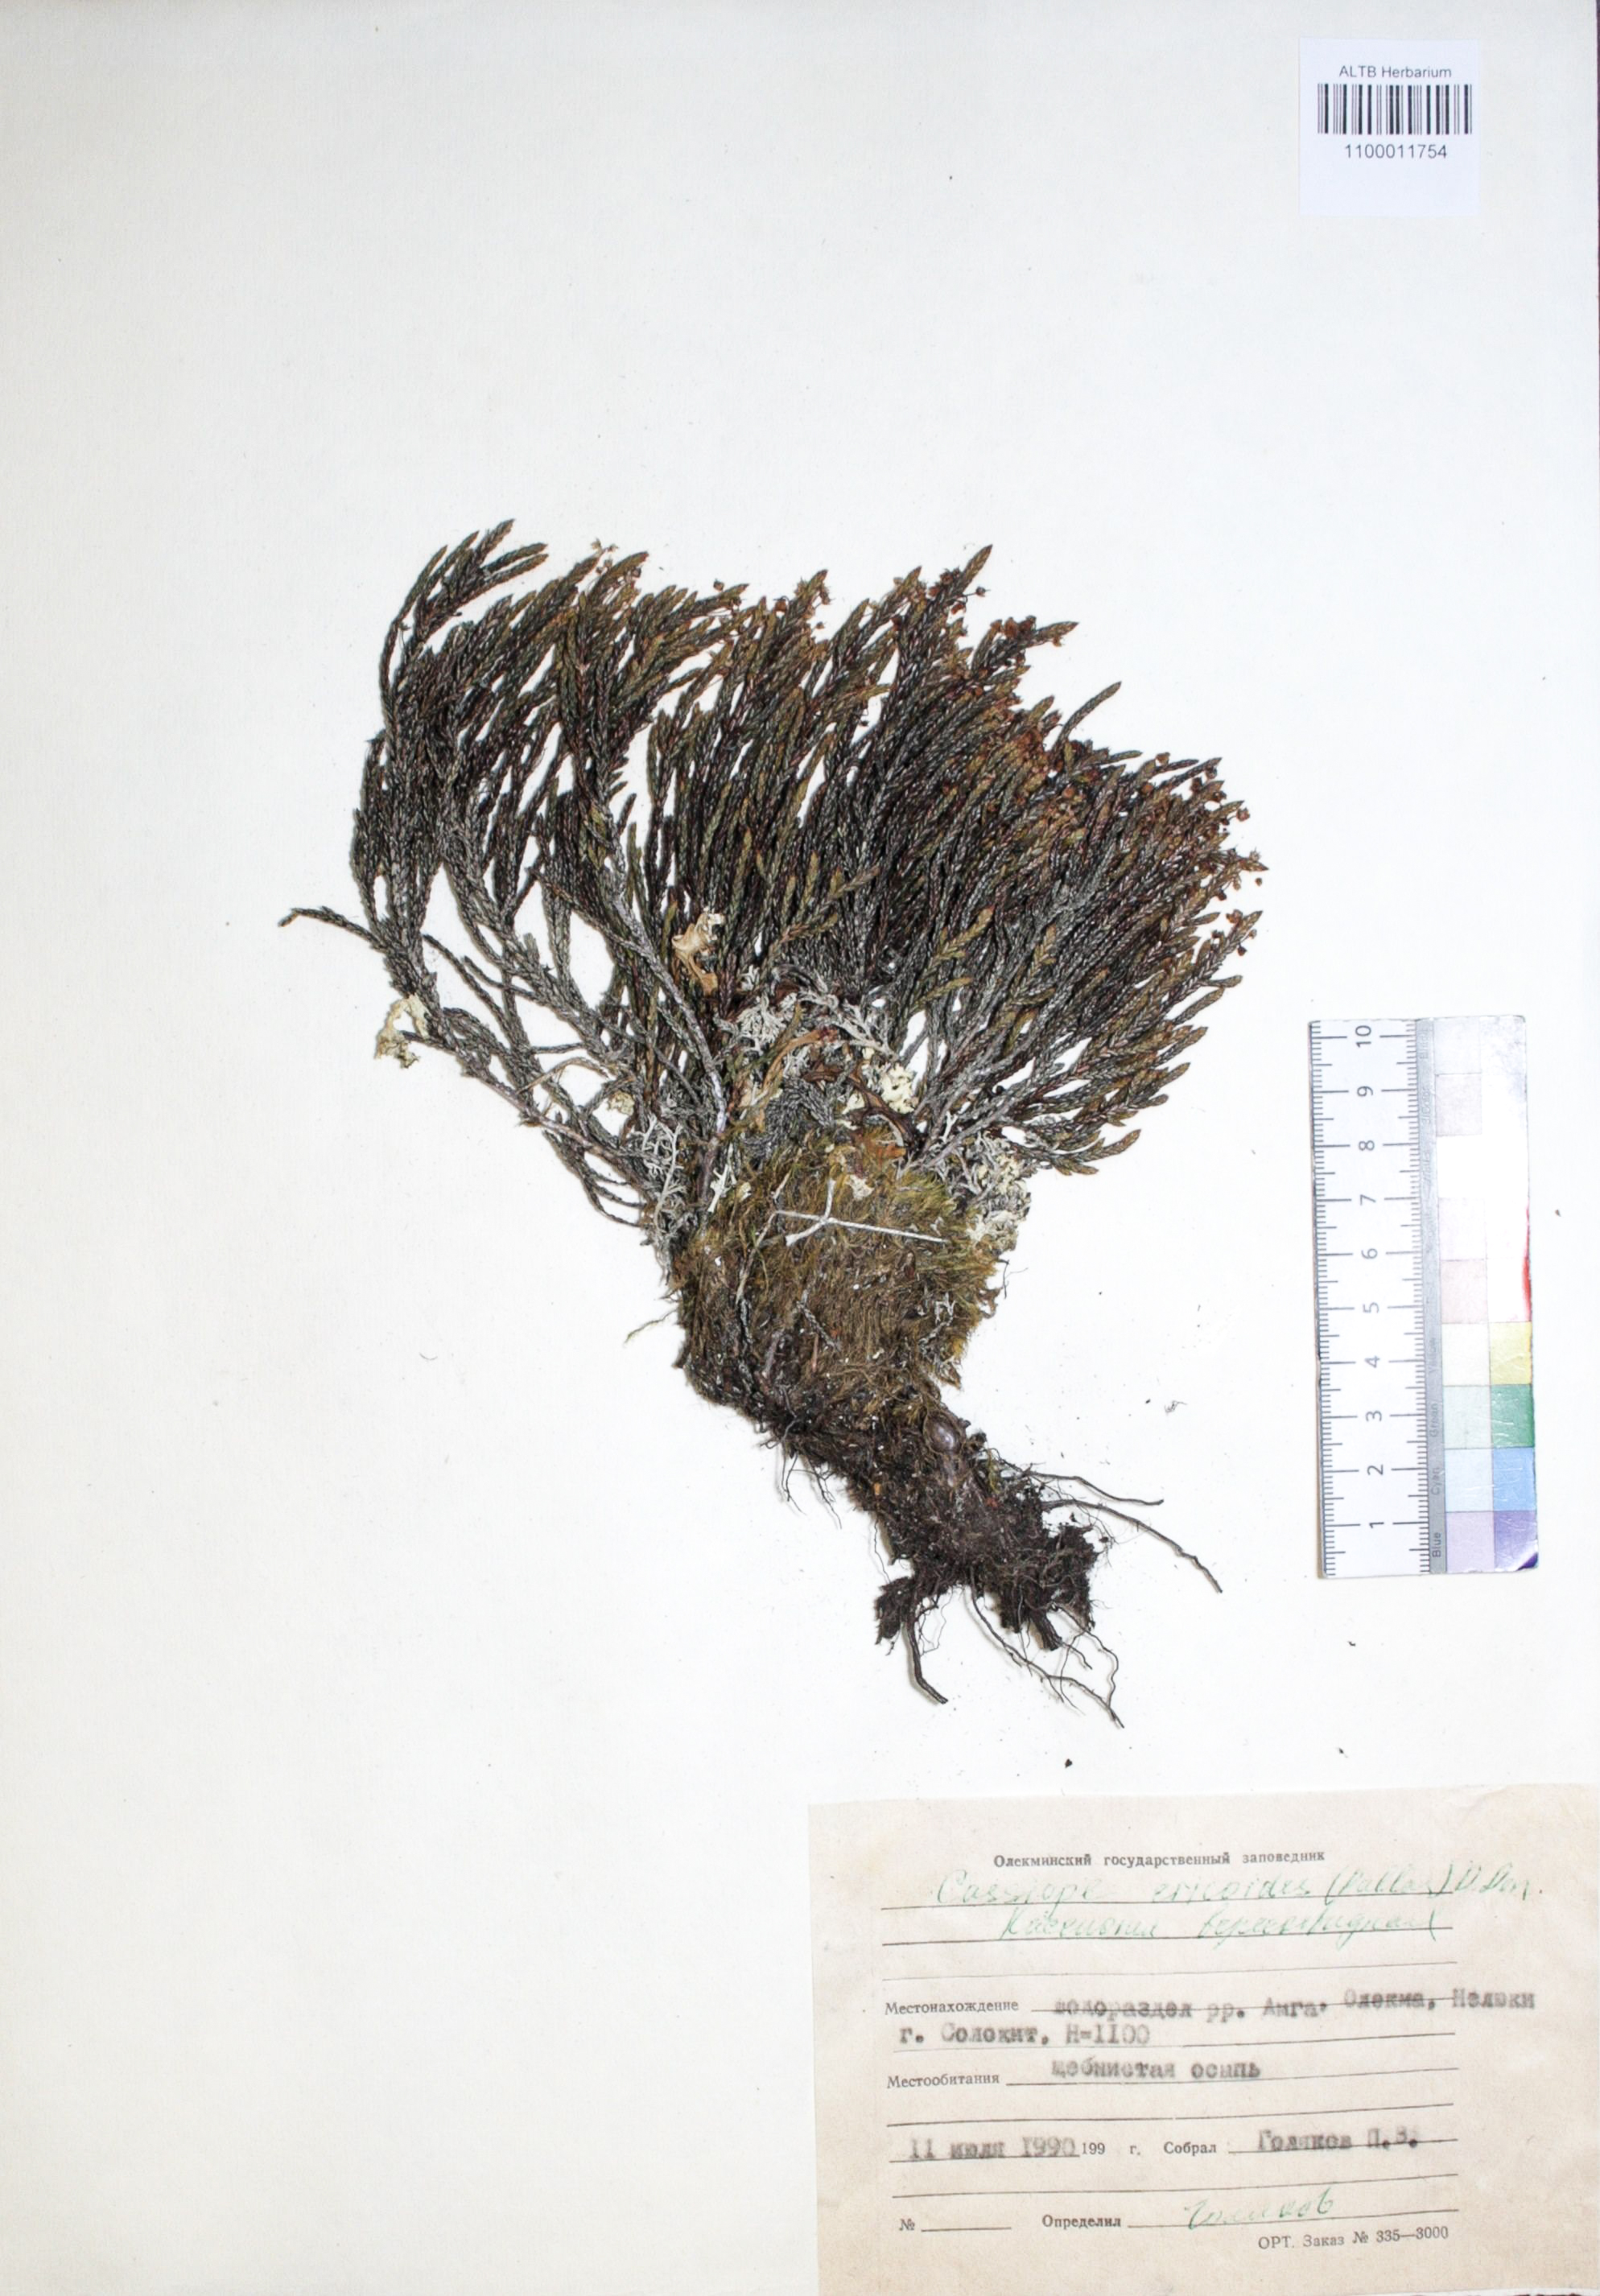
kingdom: Plantae
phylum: Tracheophyta
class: Magnoliopsida
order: Ericales
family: Ericaceae
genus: Cassiope
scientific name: Cassiope ericoides
